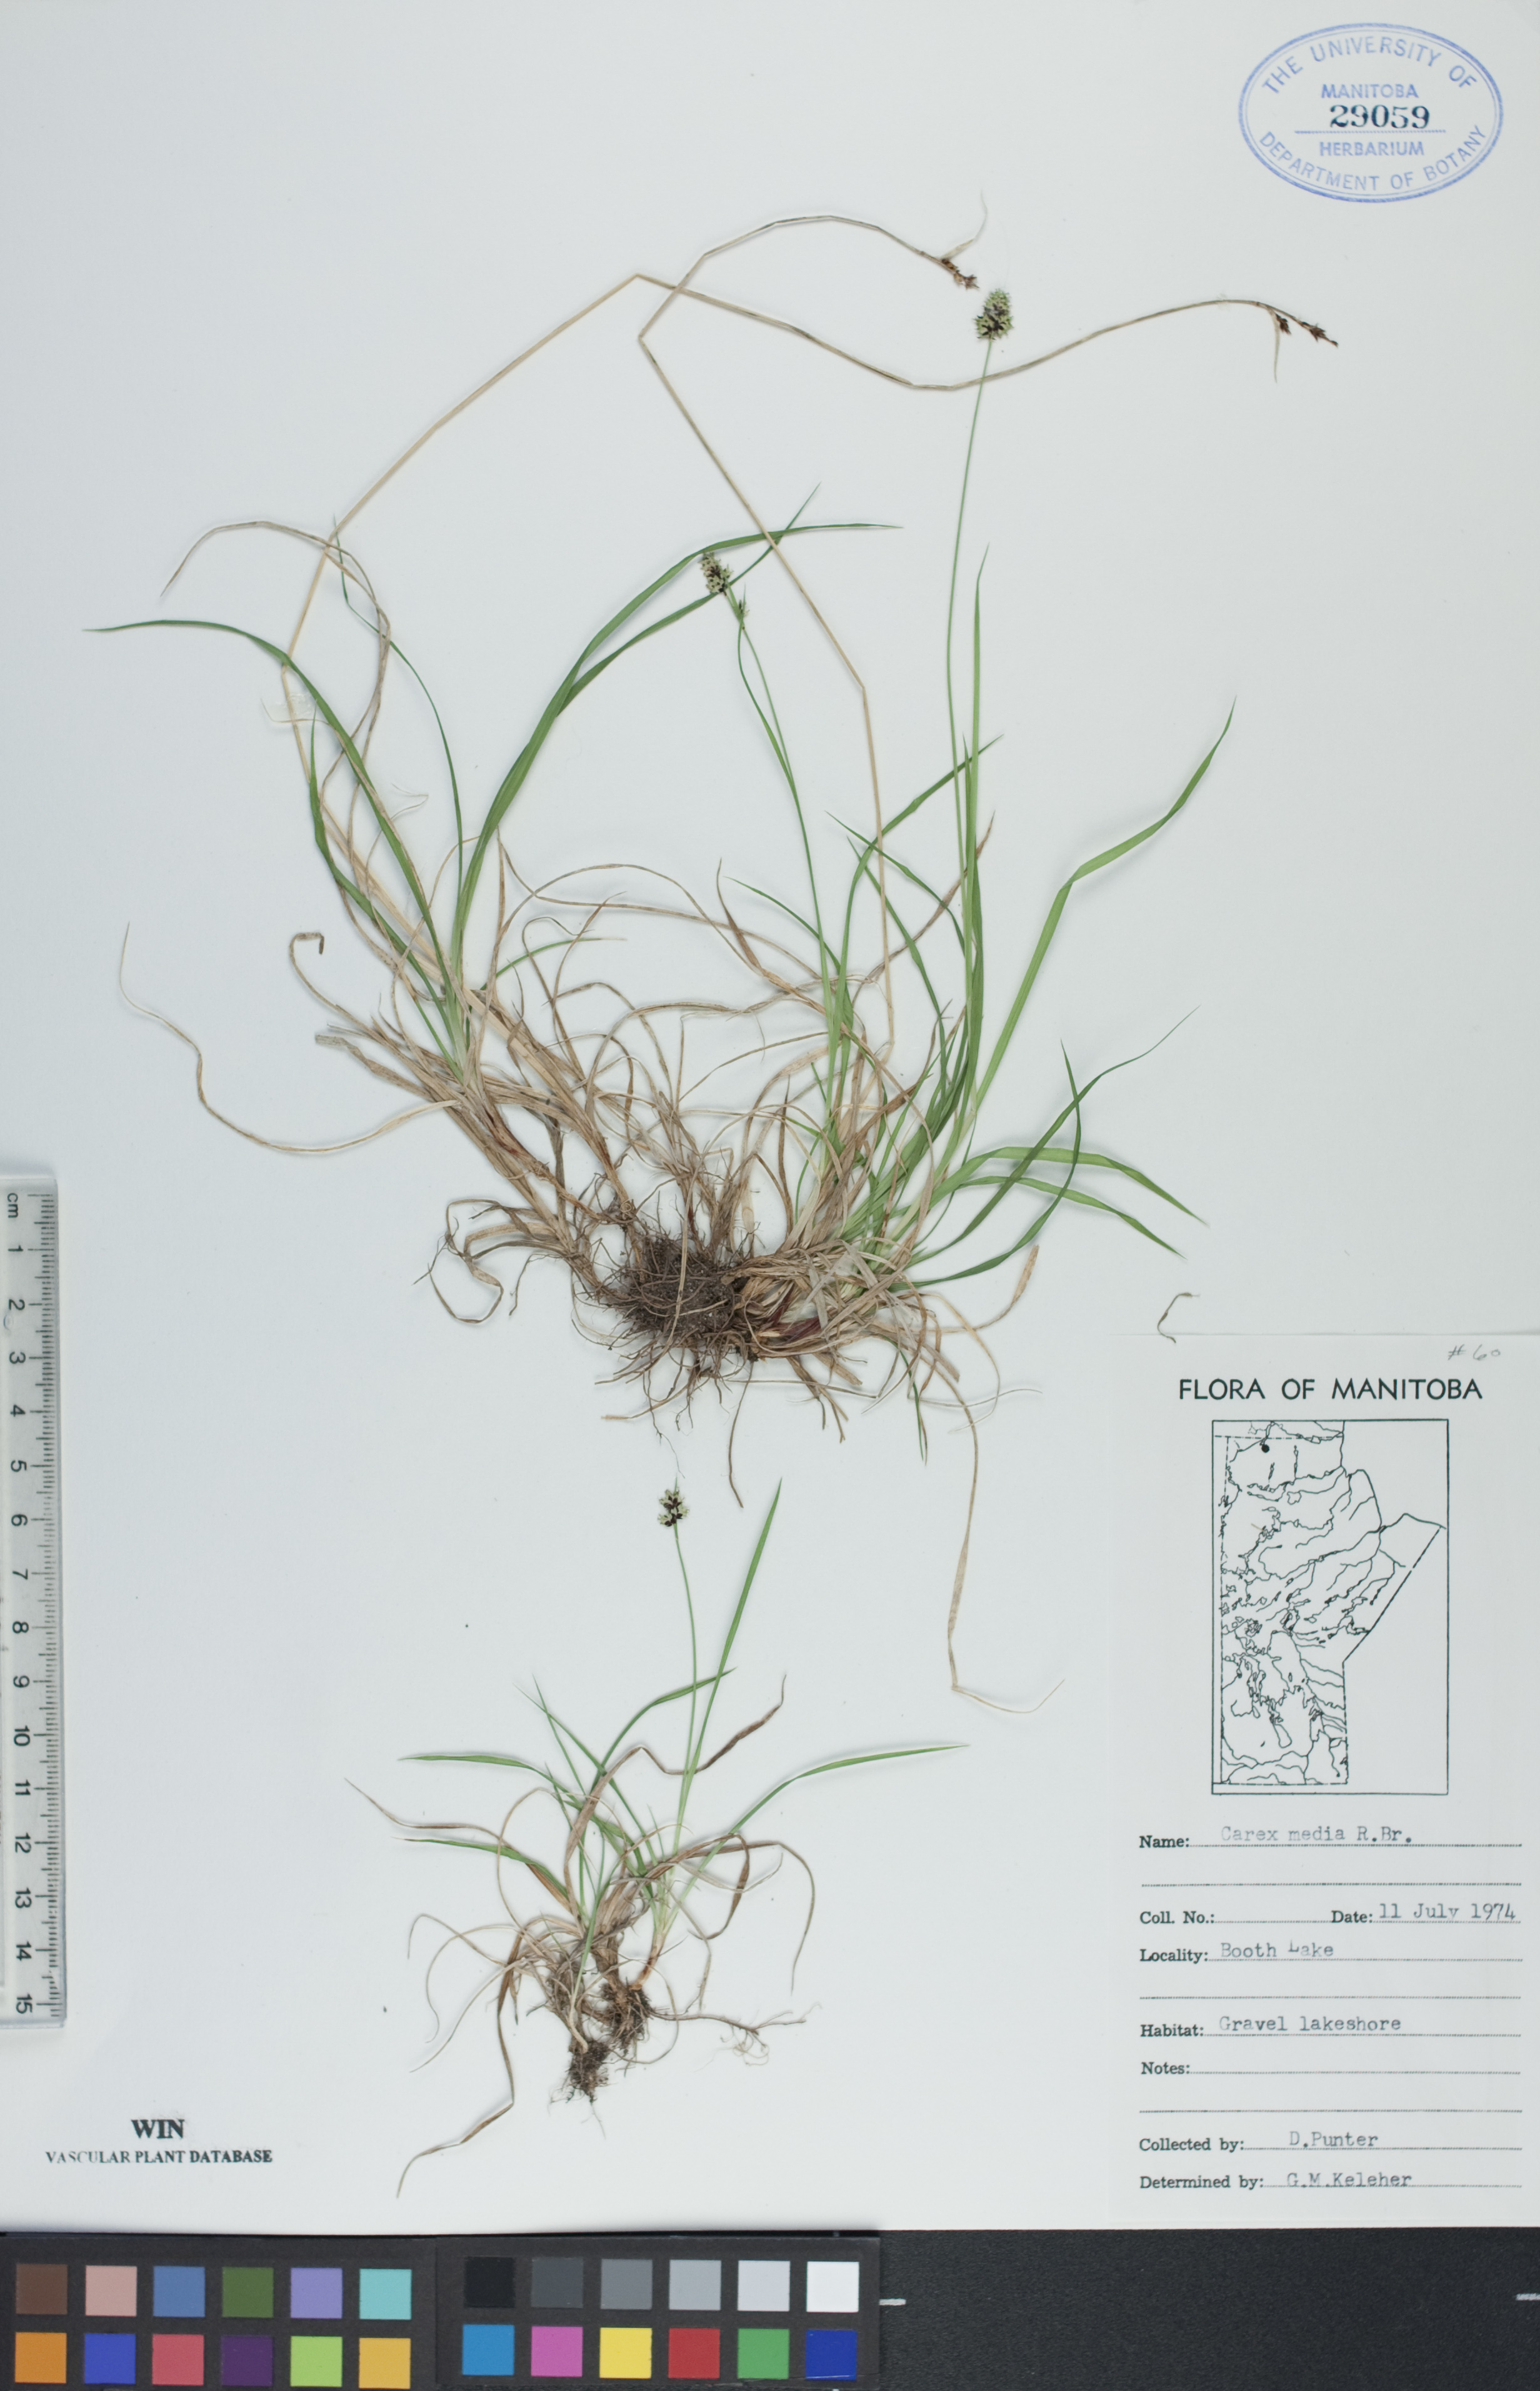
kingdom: Plantae
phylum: Tracheophyta
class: Liliopsida
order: Poales
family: Cyperaceae
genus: Carex
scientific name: Carex media
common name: Alpine sedge
